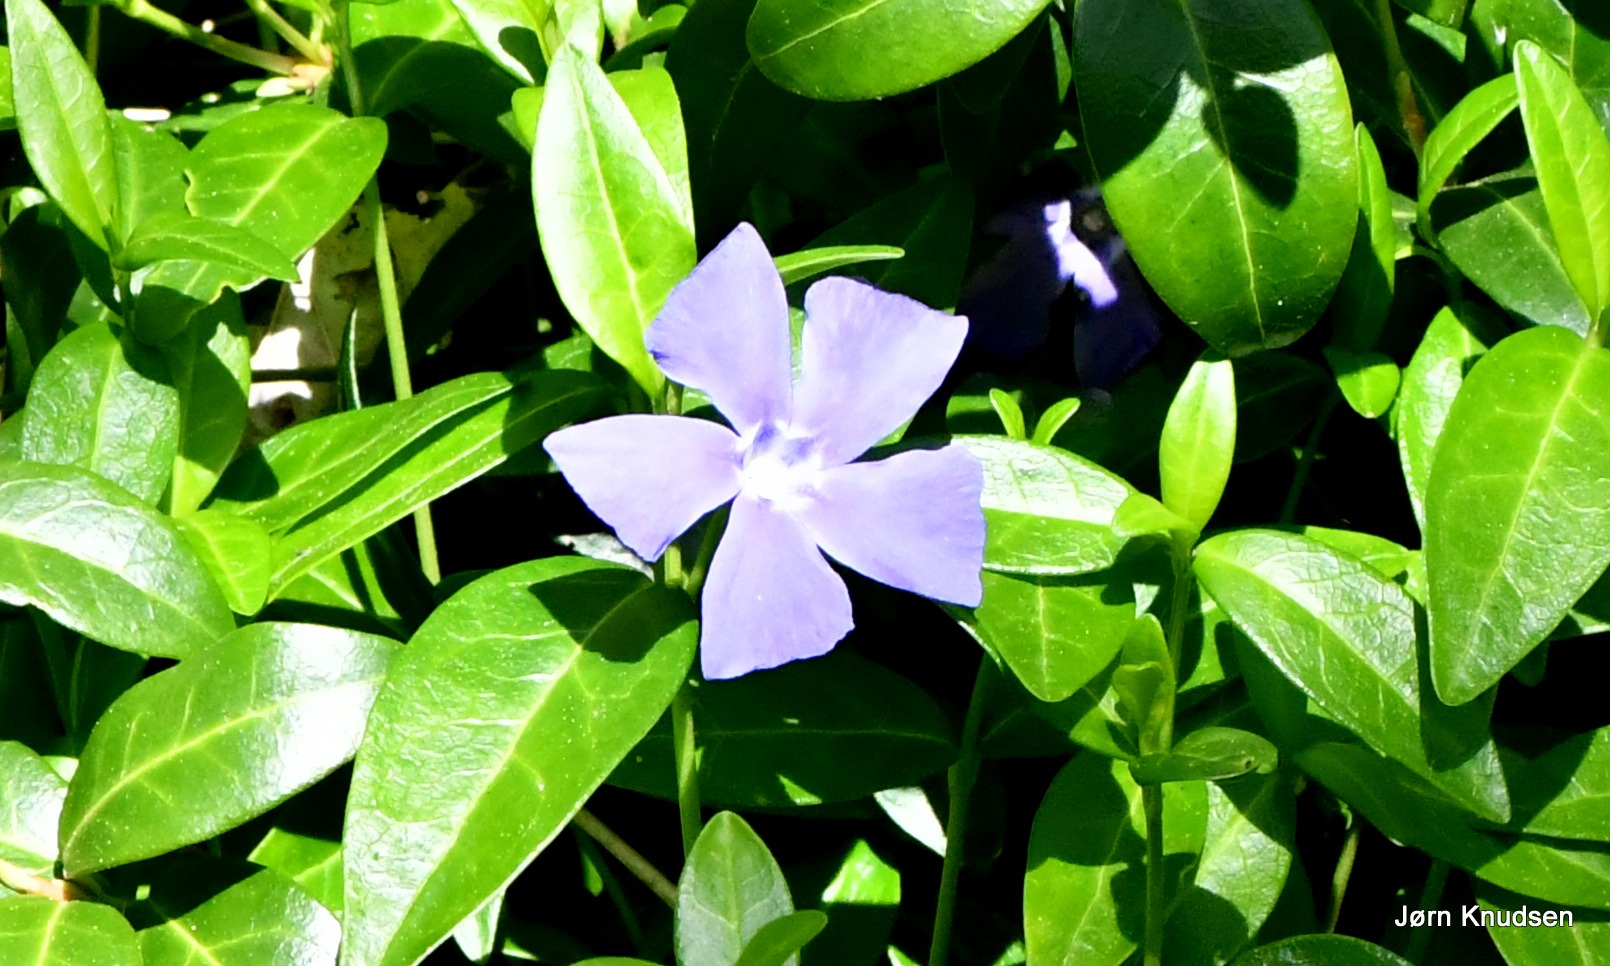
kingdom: Plantae
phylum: Tracheophyta
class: Magnoliopsida
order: Gentianales
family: Apocynaceae
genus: Vinca
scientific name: Vinca minor
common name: Liden singrøn
